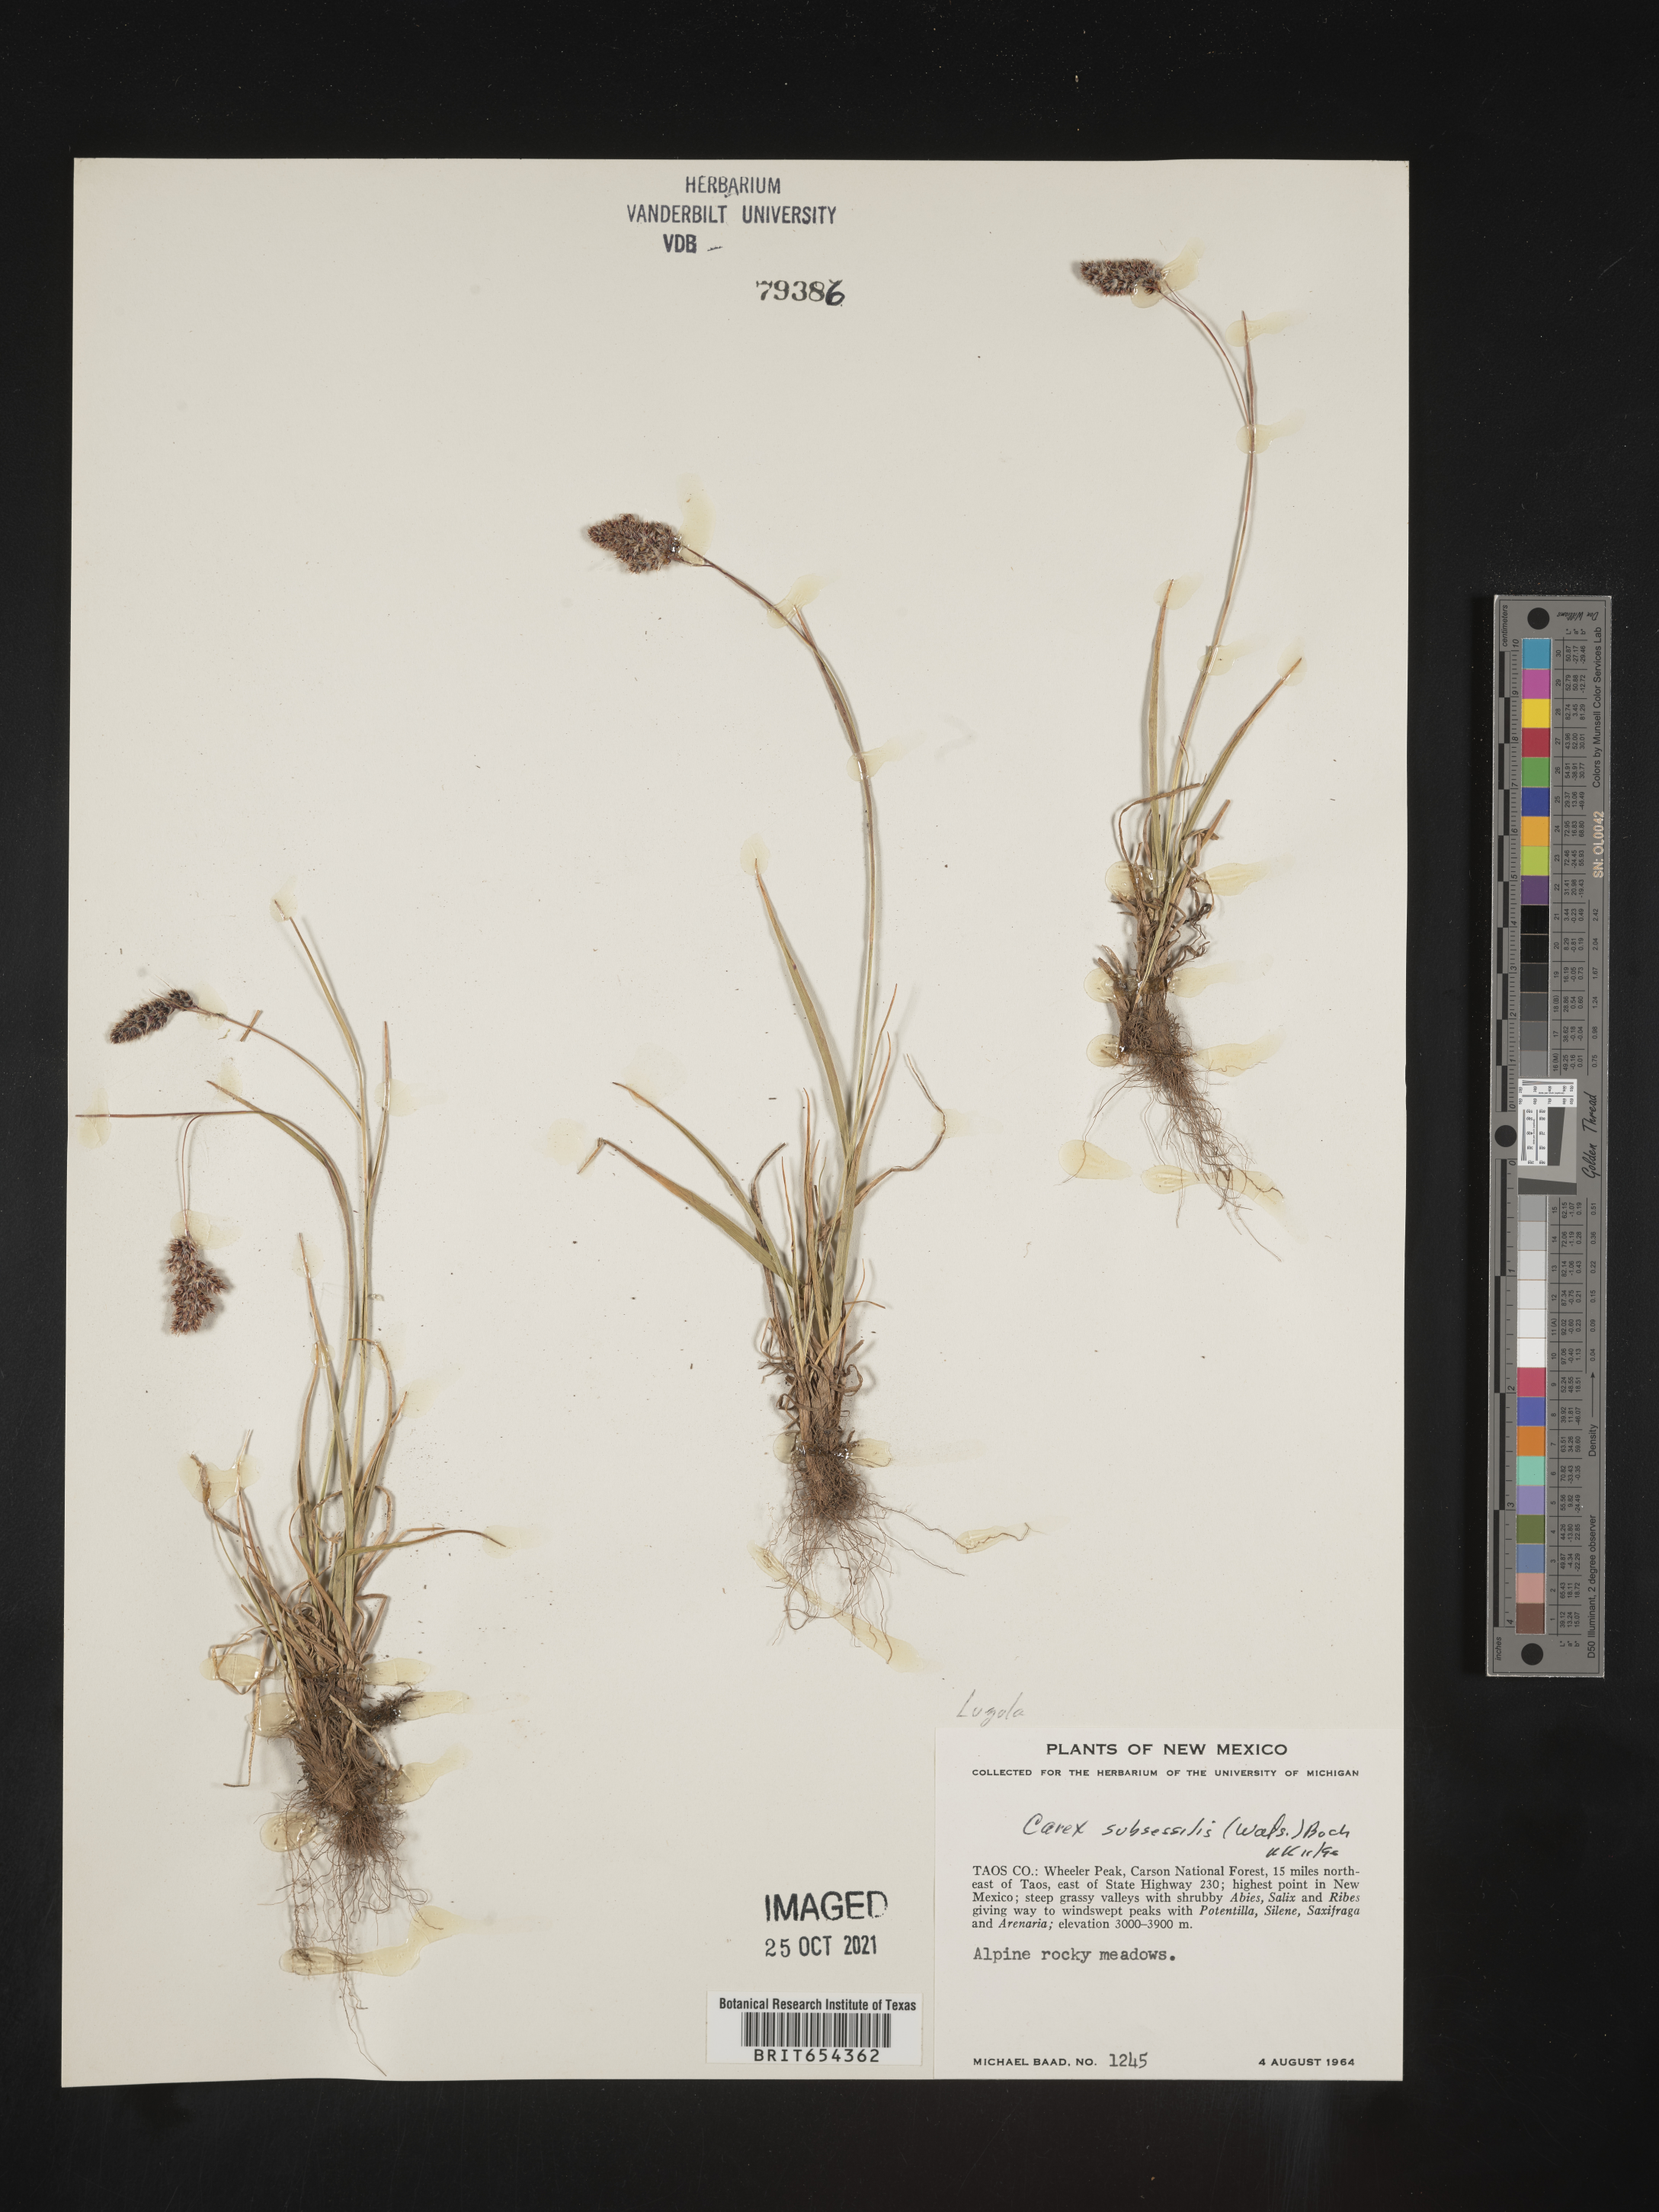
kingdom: Plantae
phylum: Tracheophyta
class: Liliopsida
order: Poales
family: Juncaceae
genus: Luzula
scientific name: Luzula
